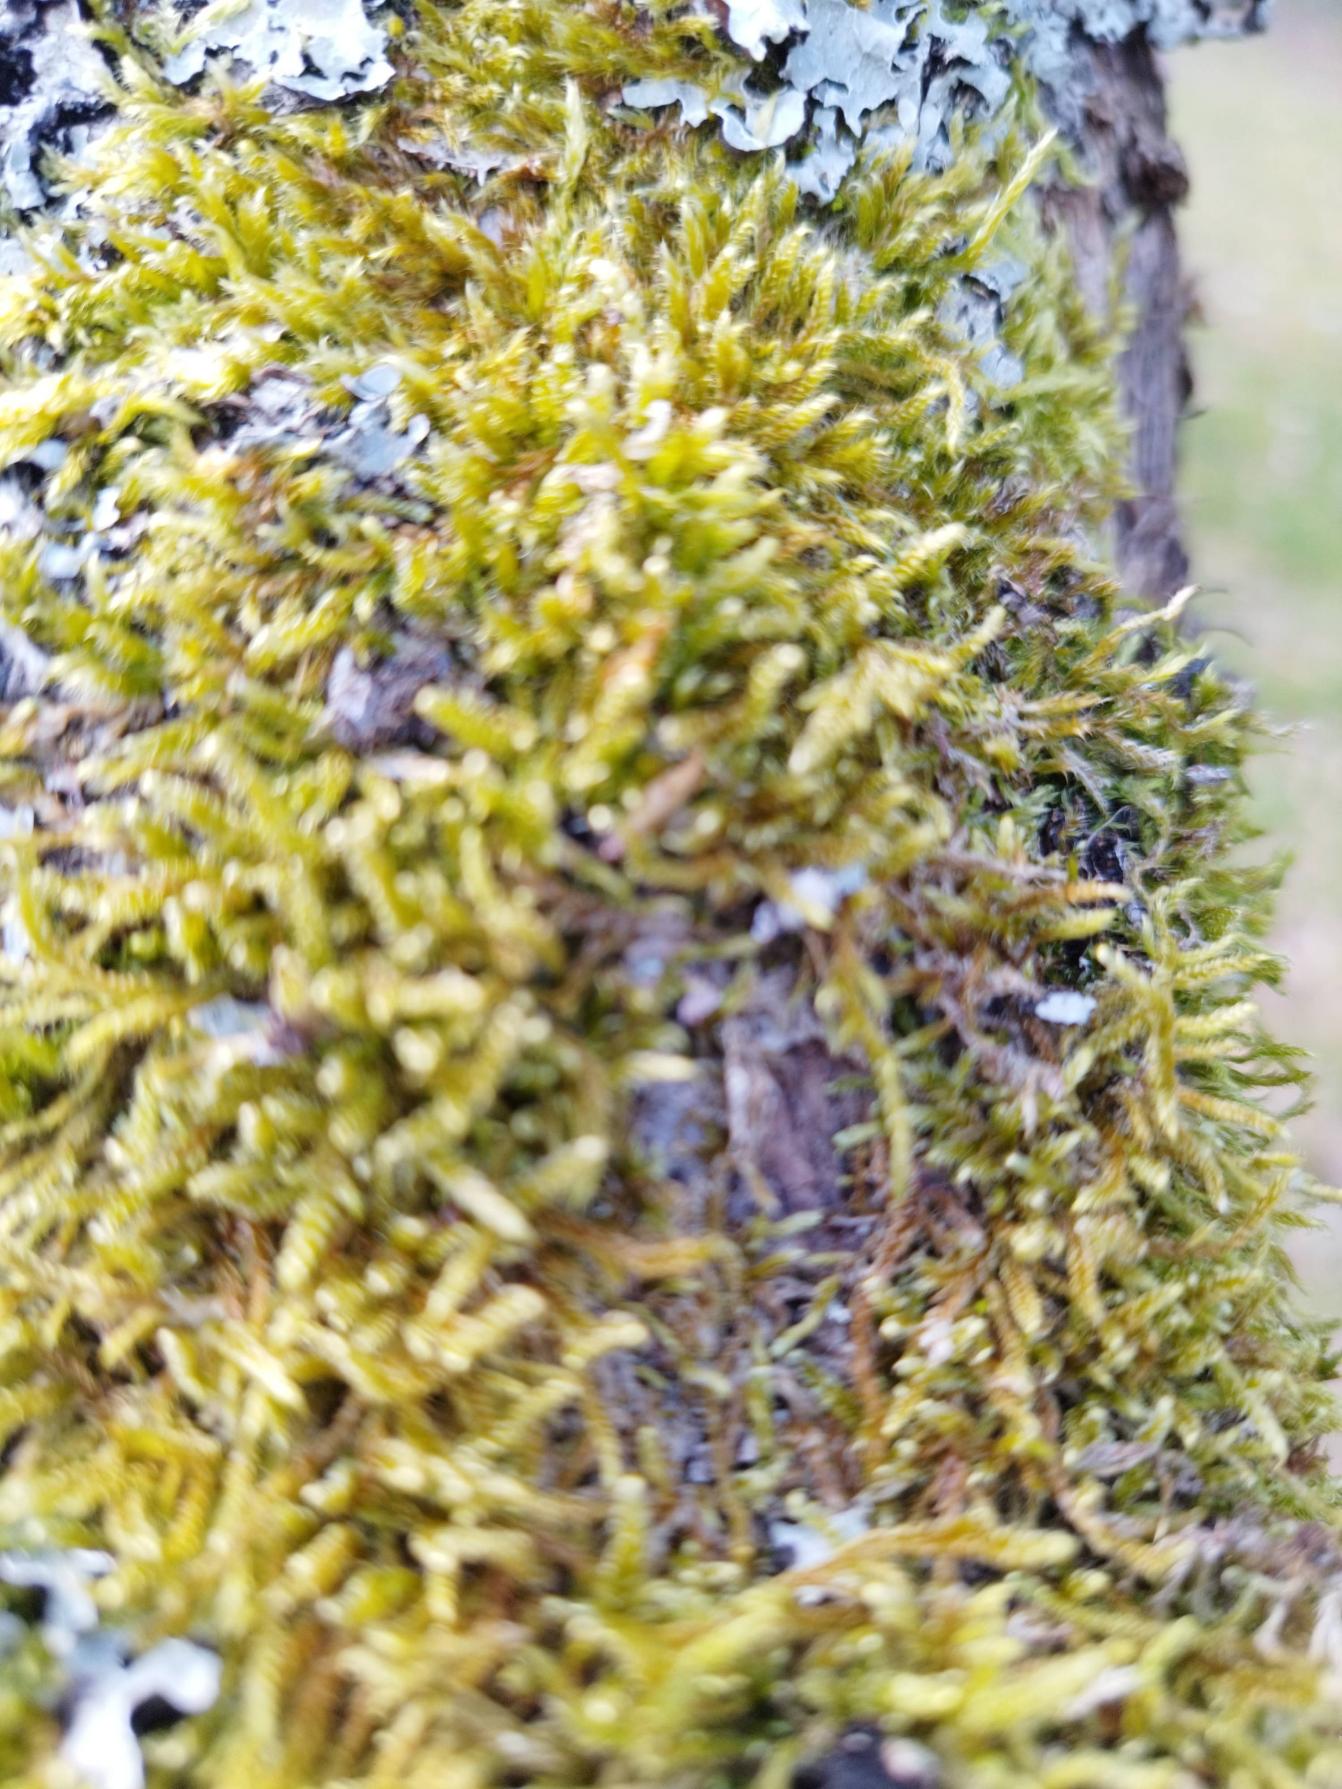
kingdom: Plantae
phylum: Bryophyta
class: Bryopsida
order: Hypnales
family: Hypnaceae
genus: Hypnum
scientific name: Hypnum cupressiforme
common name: Almindelig cypresmos
